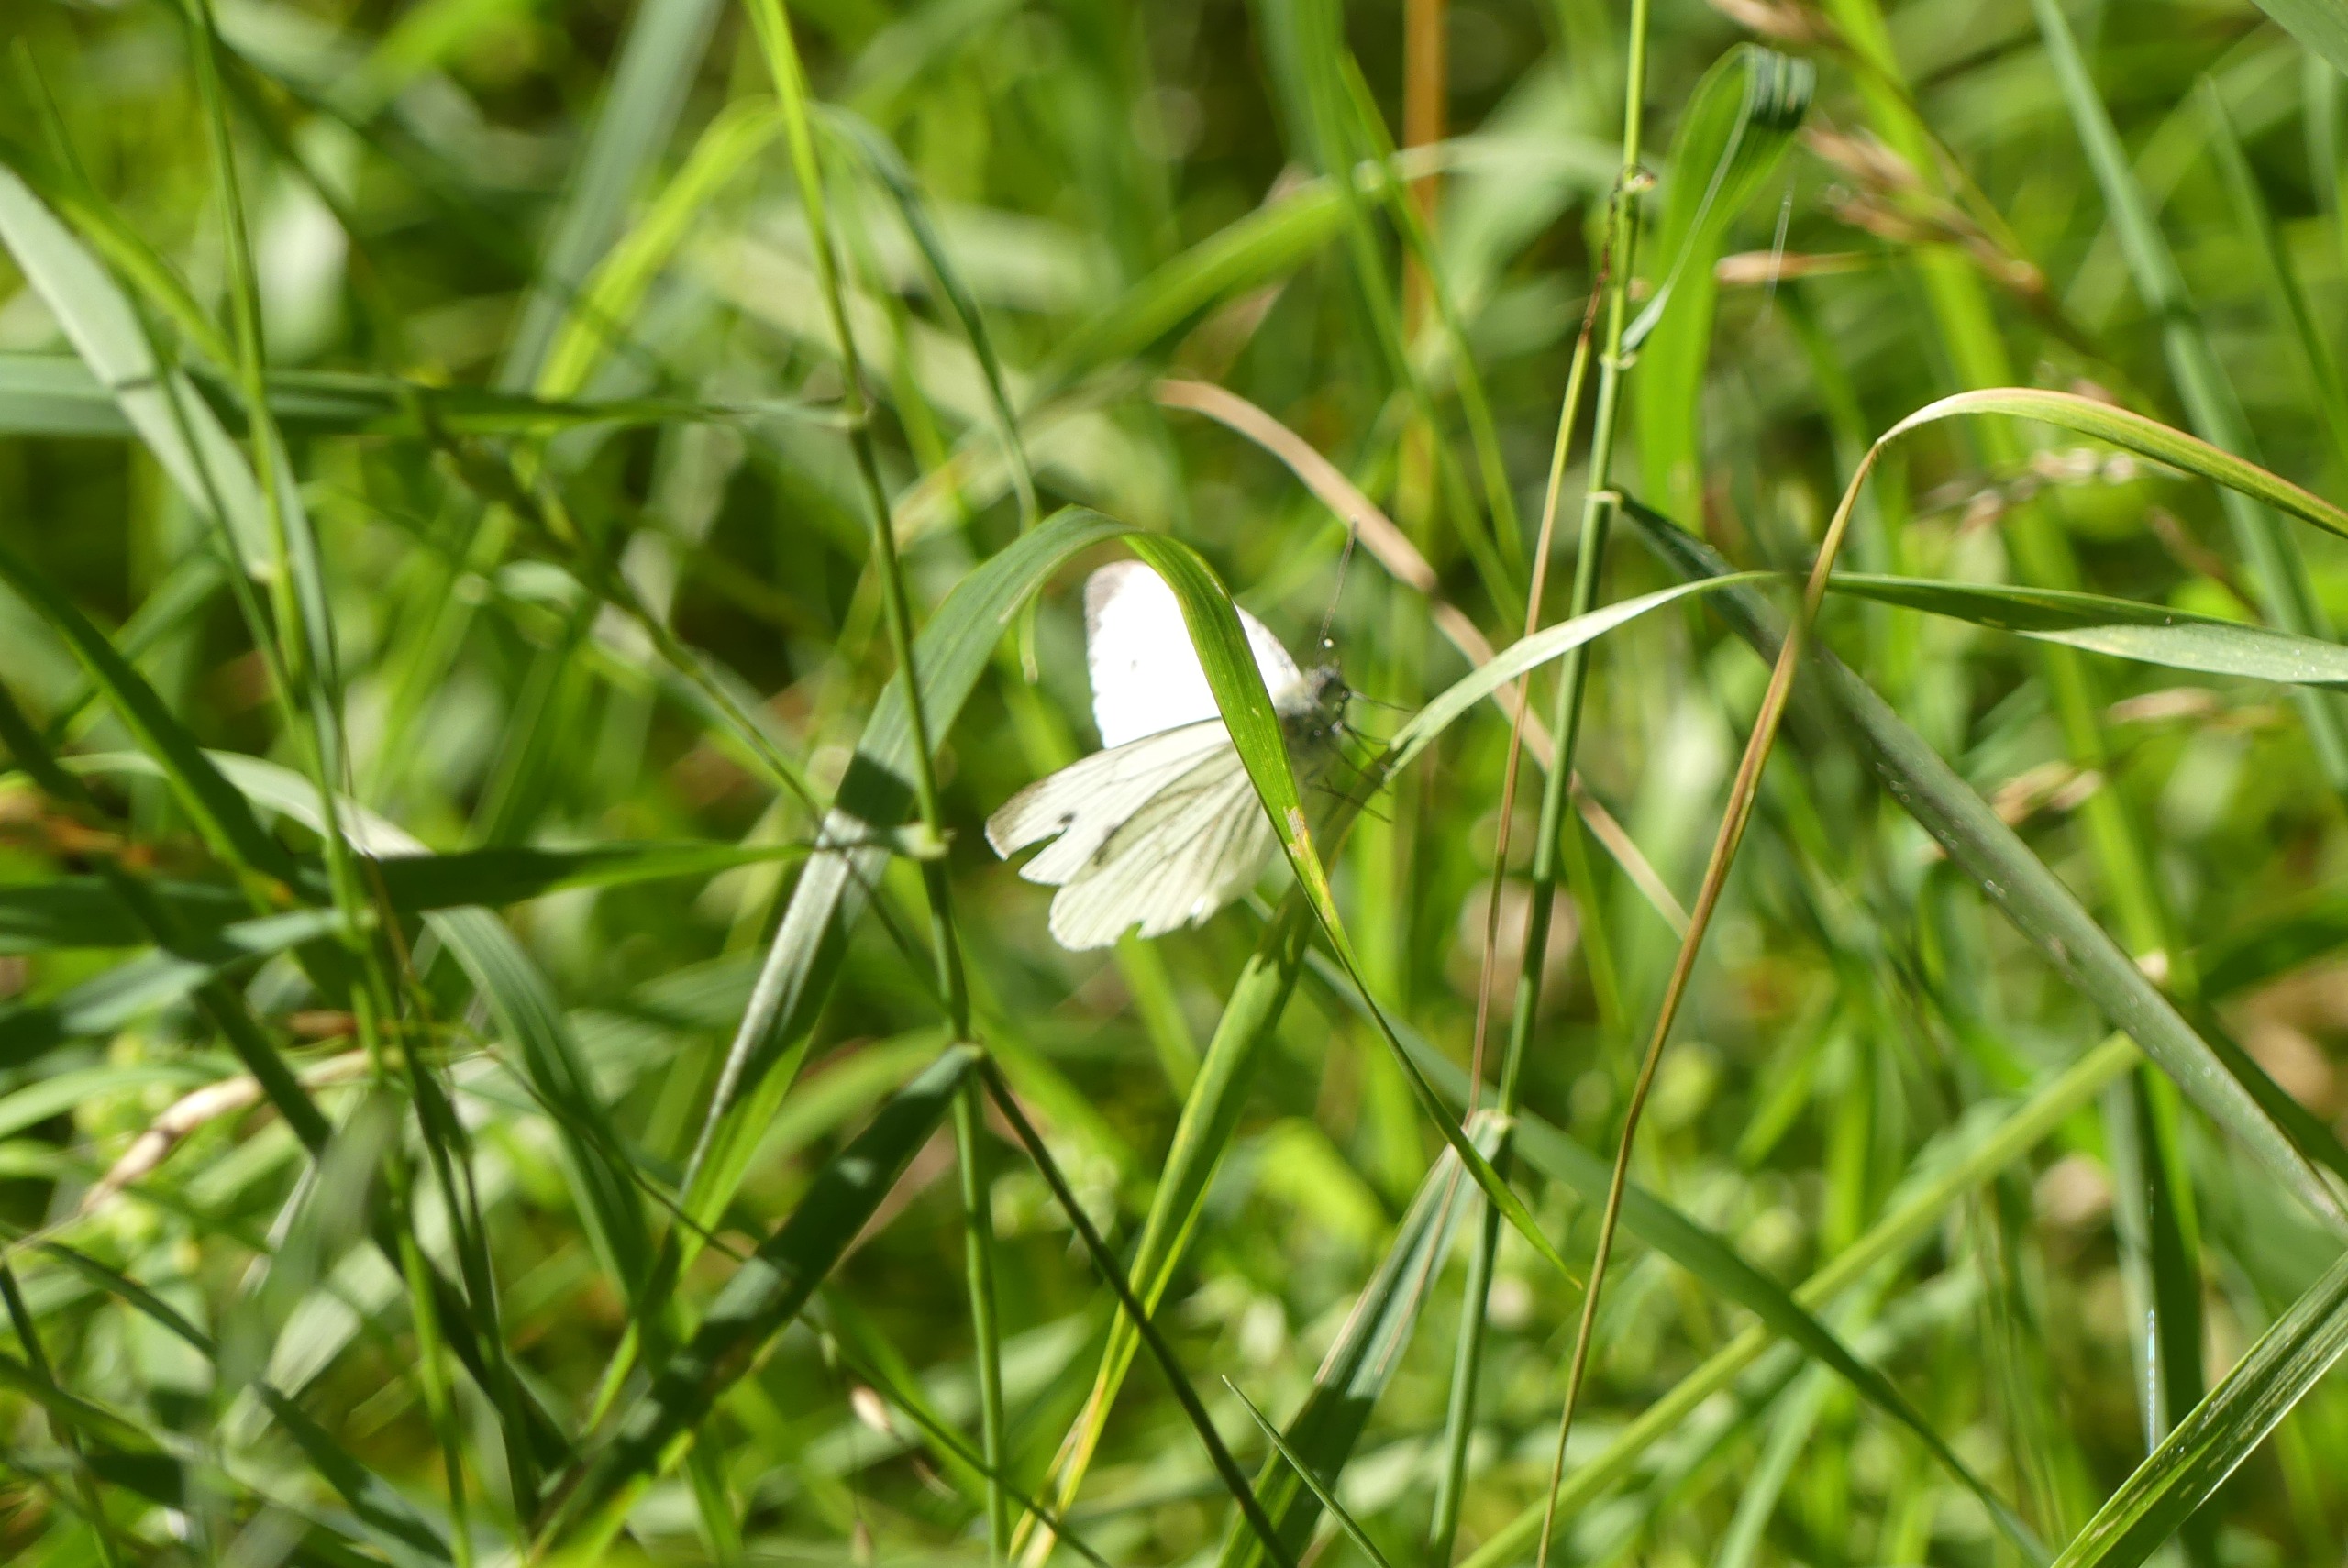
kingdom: Animalia
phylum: Arthropoda
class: Insecta
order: Lepidoptera
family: Pieridae
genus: Pieris
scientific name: Pieris napi
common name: Grønåret kålsommerfugl
